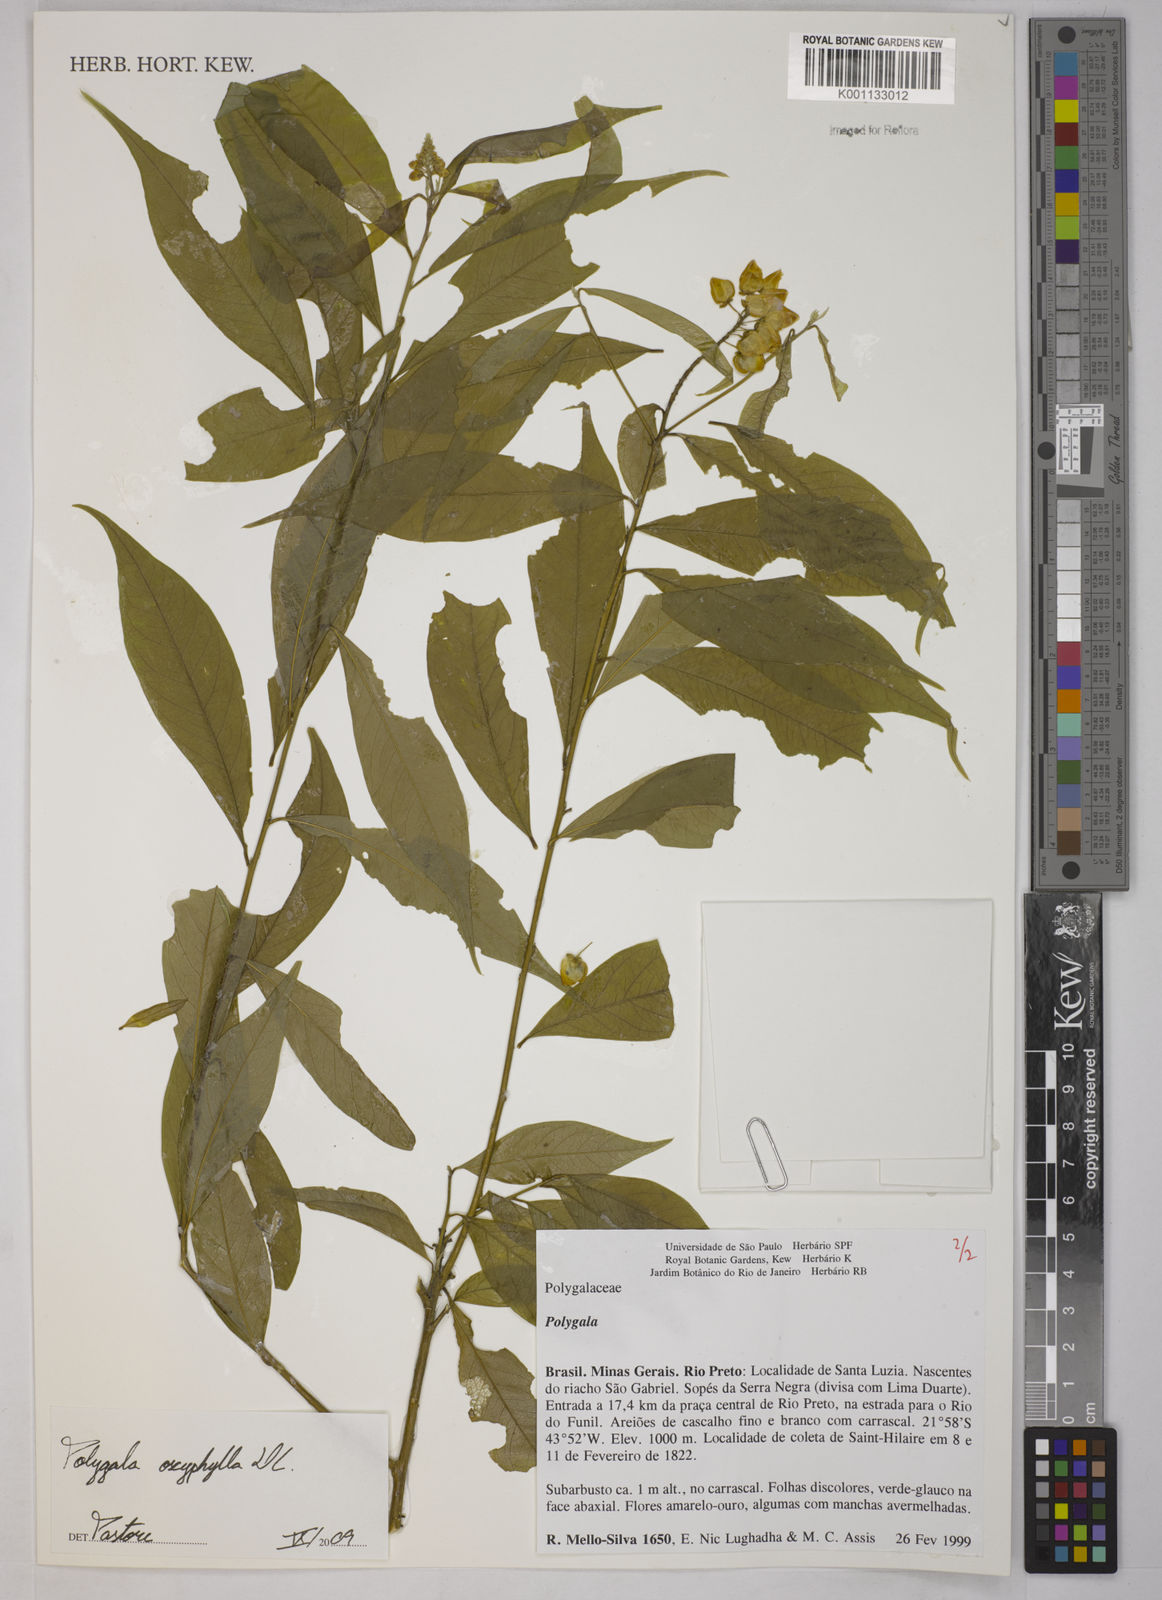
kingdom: Plantae
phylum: Tracheophyta
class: Magnoliopsida
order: Fabales
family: Polygalaceae
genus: Caamembeca
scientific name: Caamembeca oxyphylla
